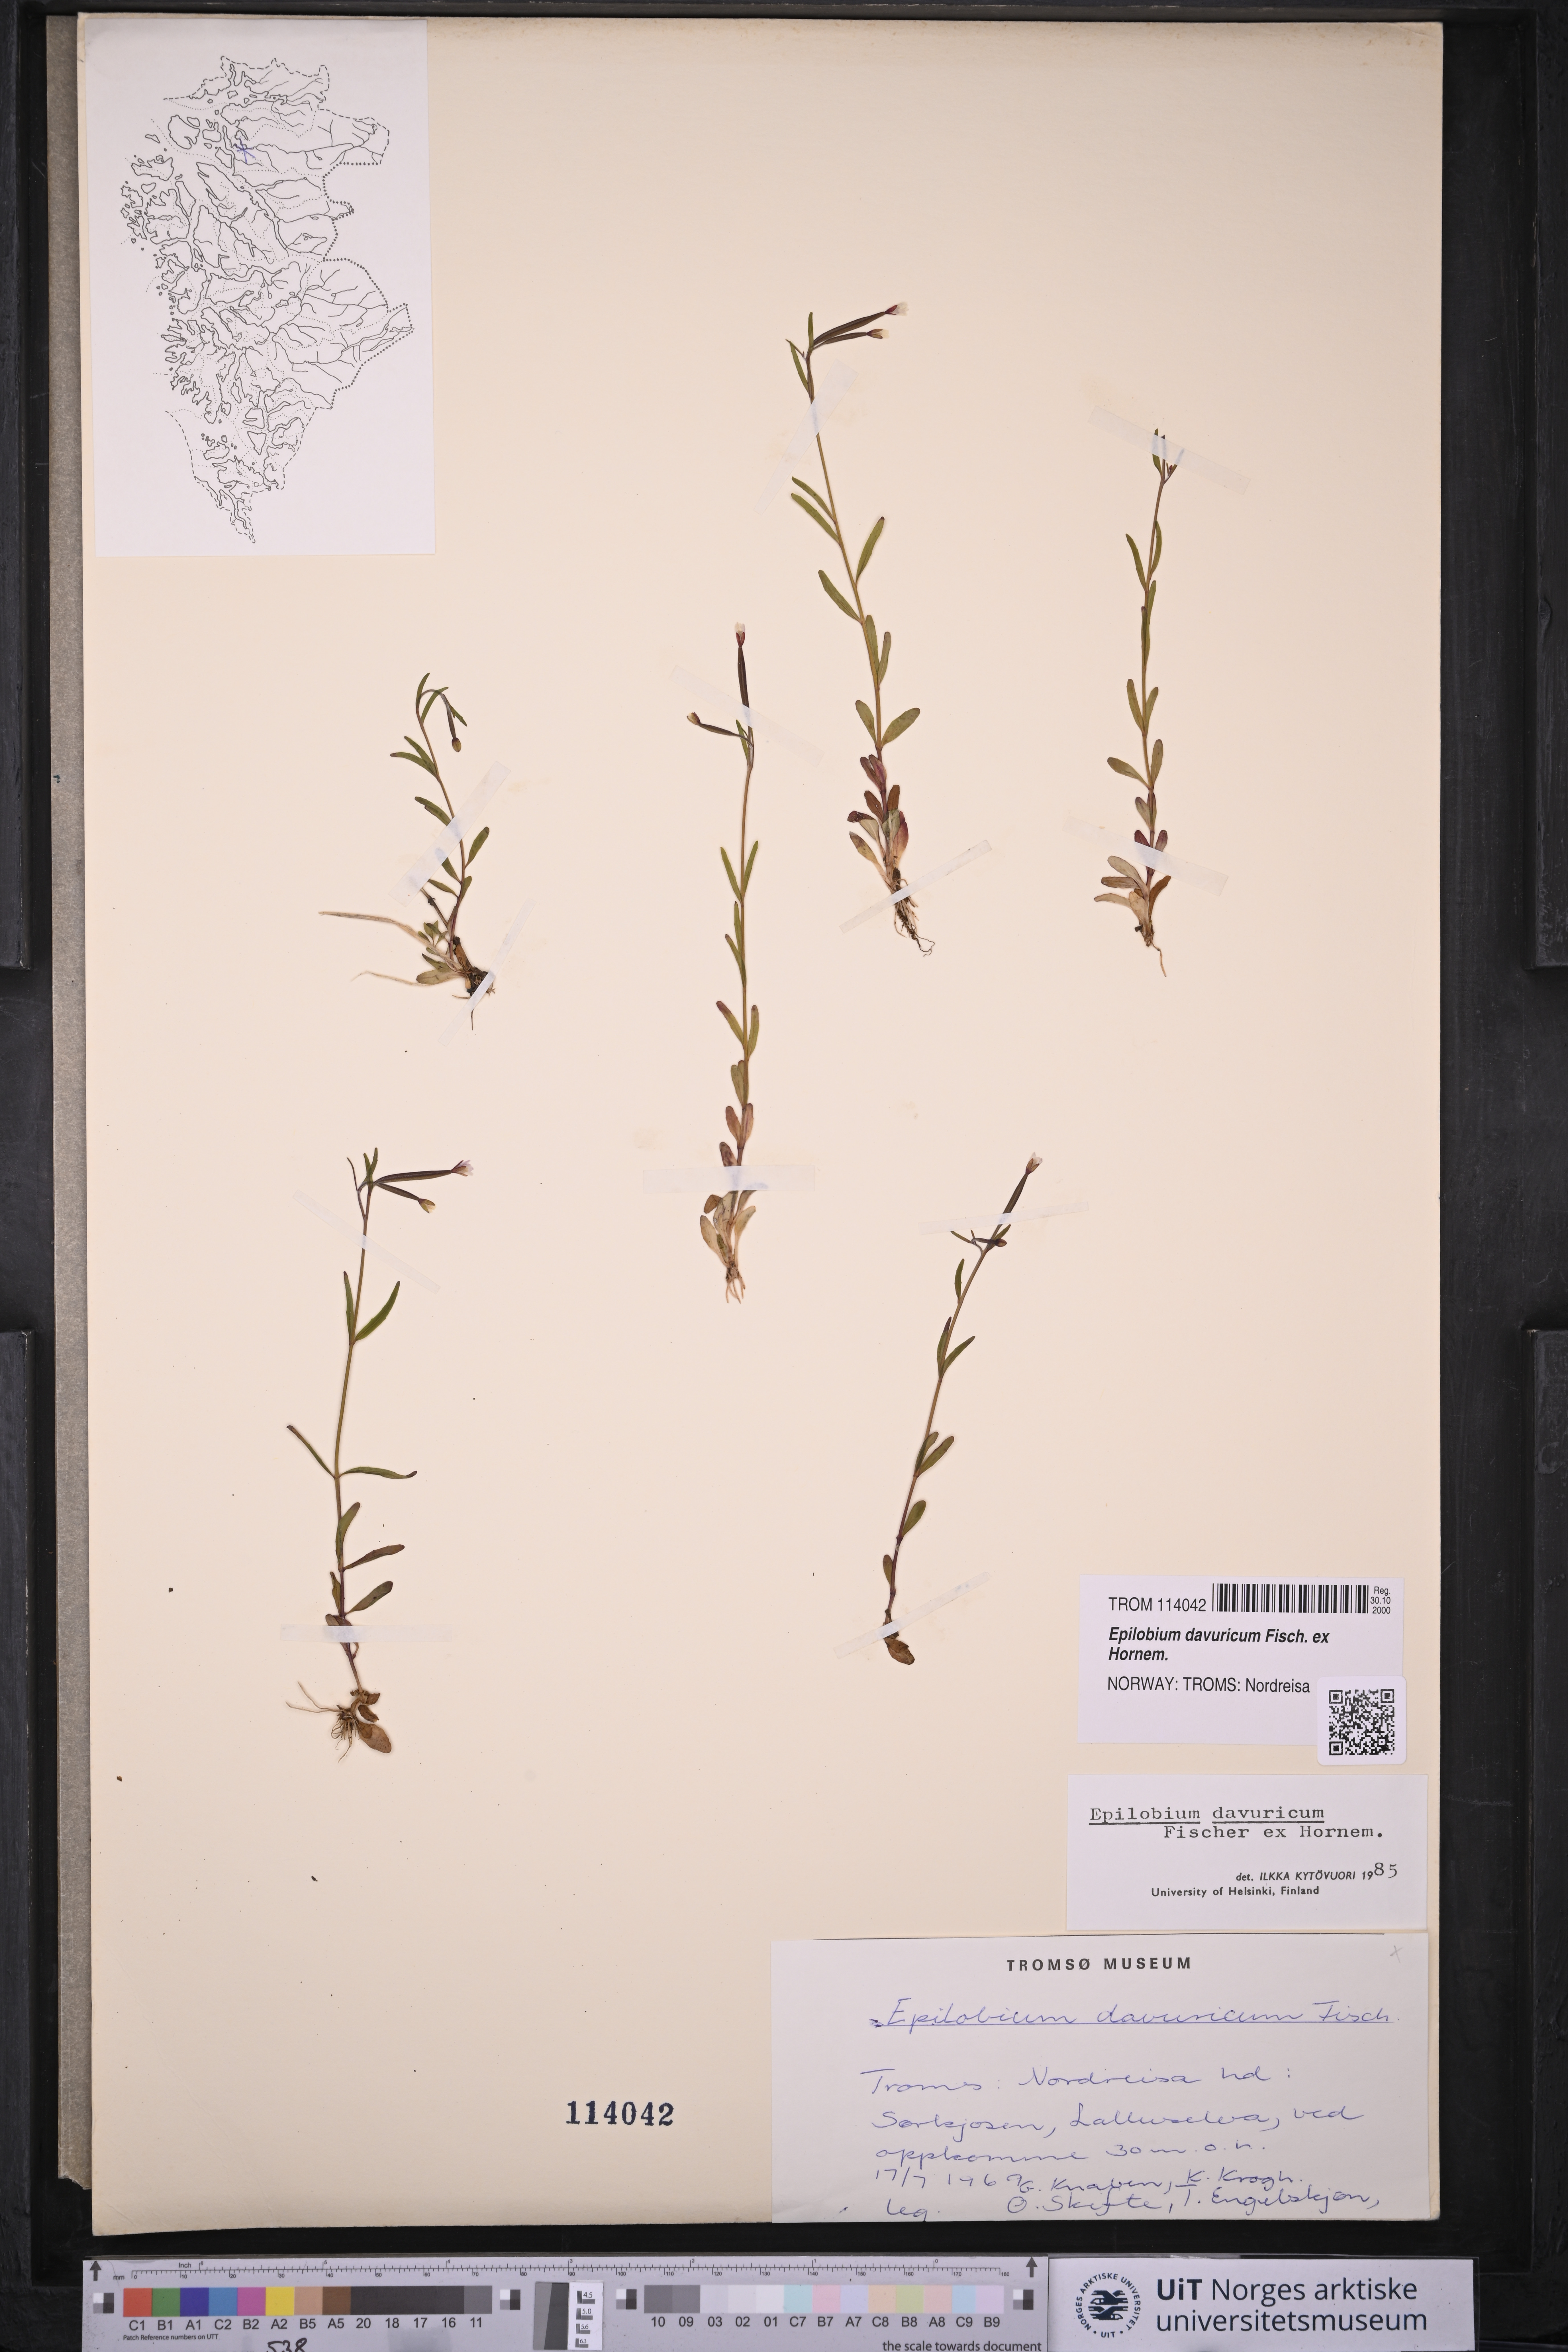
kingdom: Plantae
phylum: Tracheophyta
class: Magnoliopsida
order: Myrtales
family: Onagraceae
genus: Epilobium
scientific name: Epilobium davuricum
